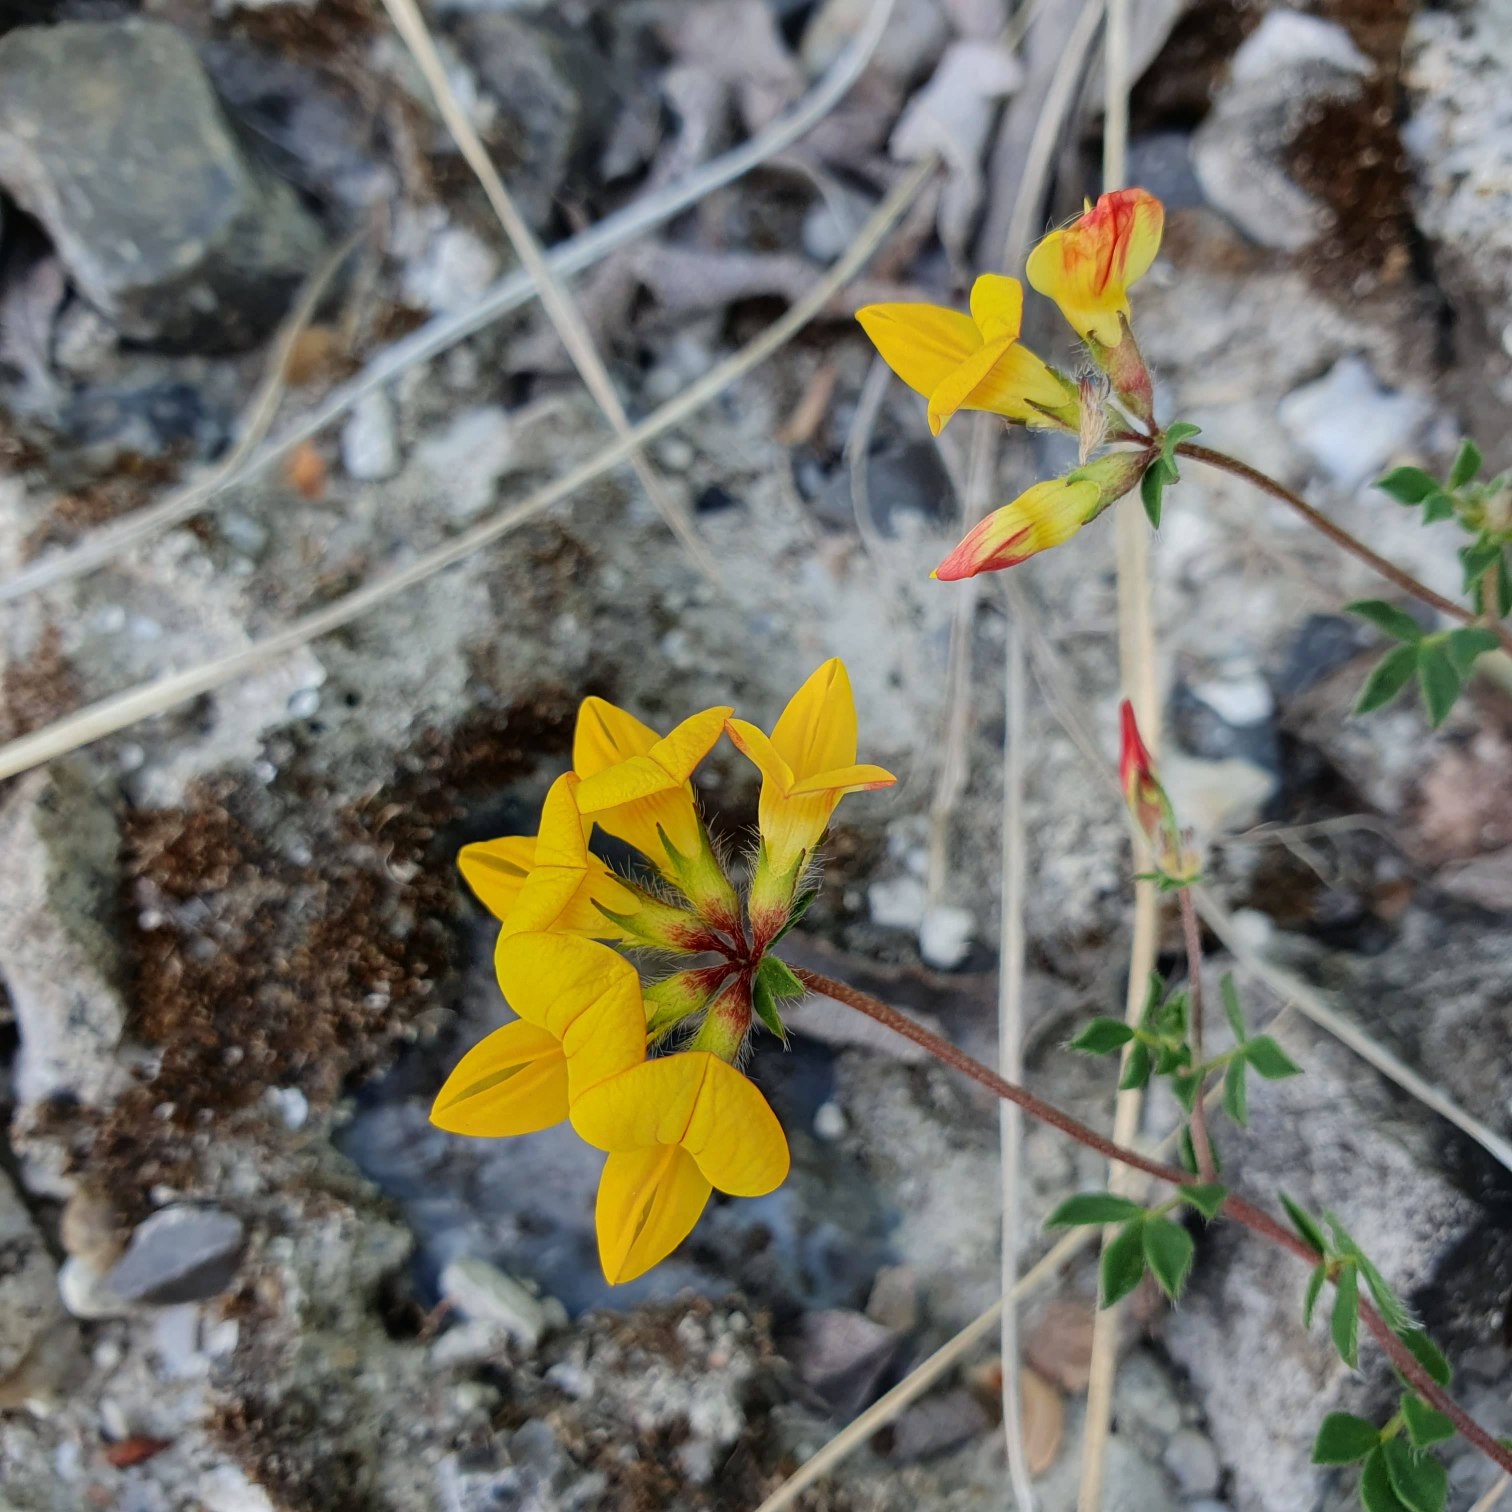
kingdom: Plantae
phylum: Tracheophyta
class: Magnoliopsida
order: Fabales
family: Fabaceae
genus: Lotus
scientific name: Lotus corniculatus
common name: Almindelig kællingetand
